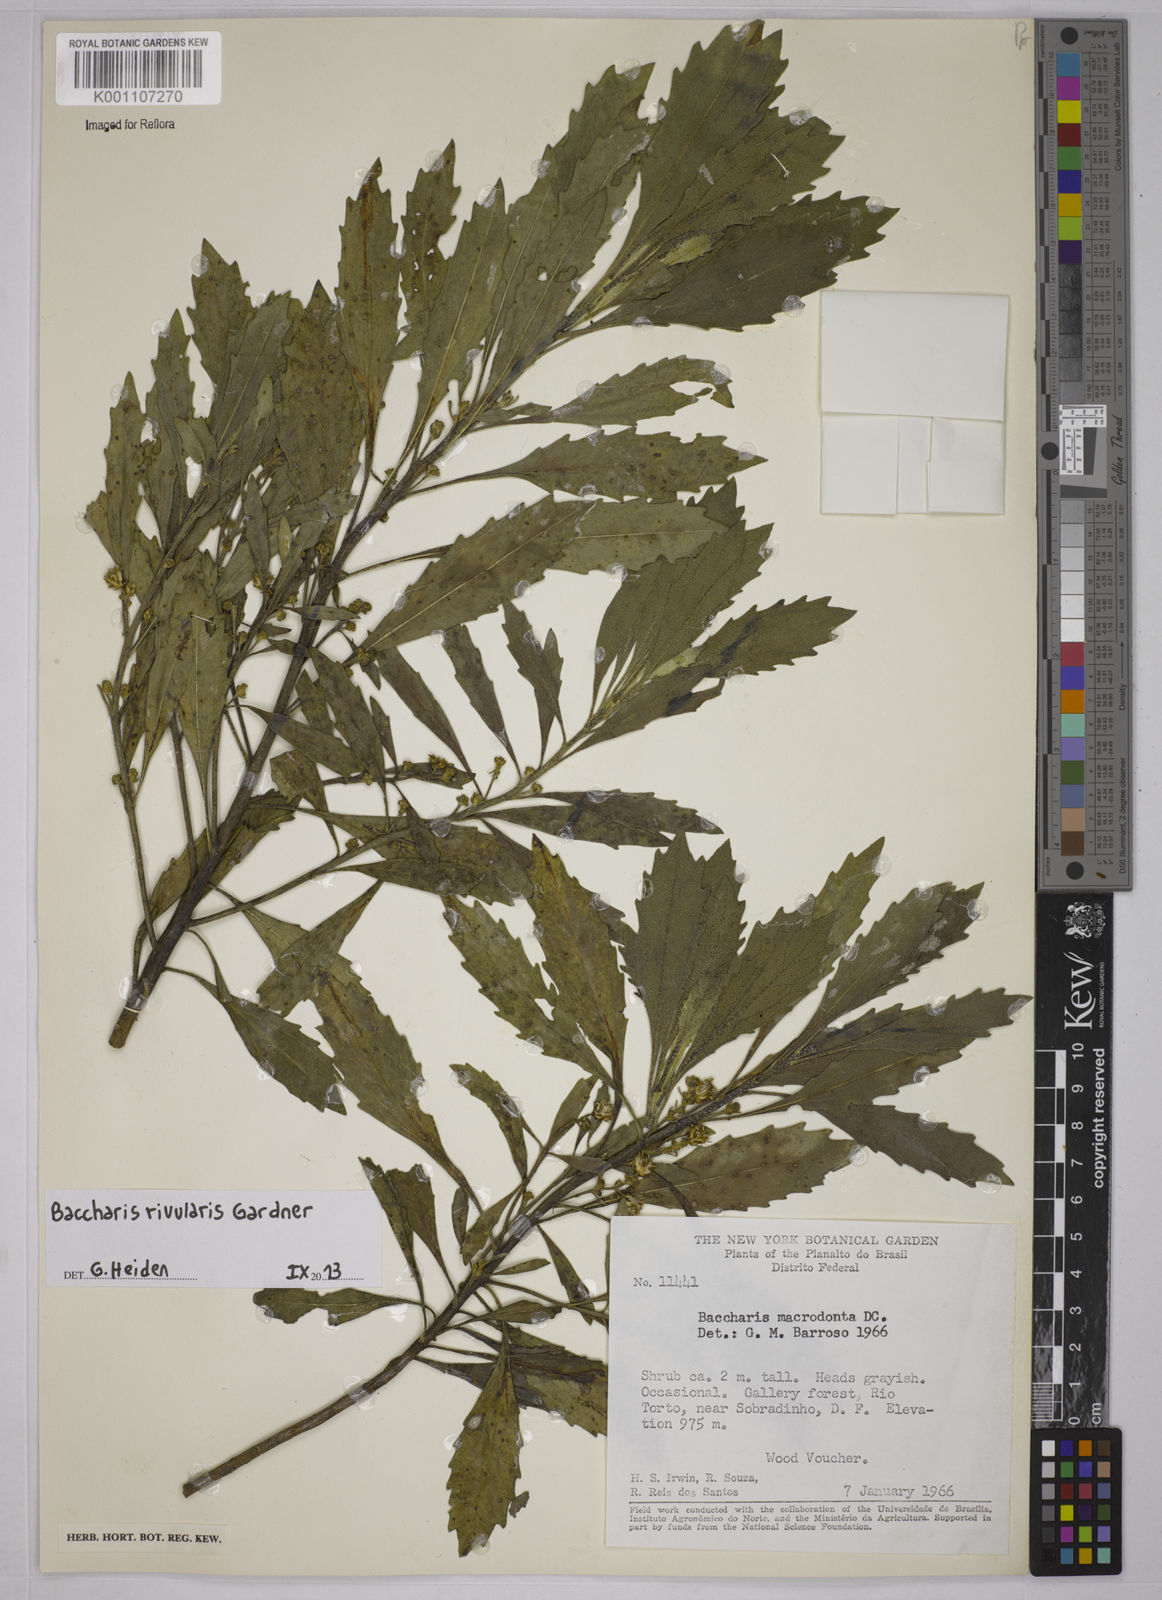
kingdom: Plantae
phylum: Tracheophyta
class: Magnoliopsida
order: Asterales
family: Asteraceae
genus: Baccharis
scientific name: Baccharis rivularis
